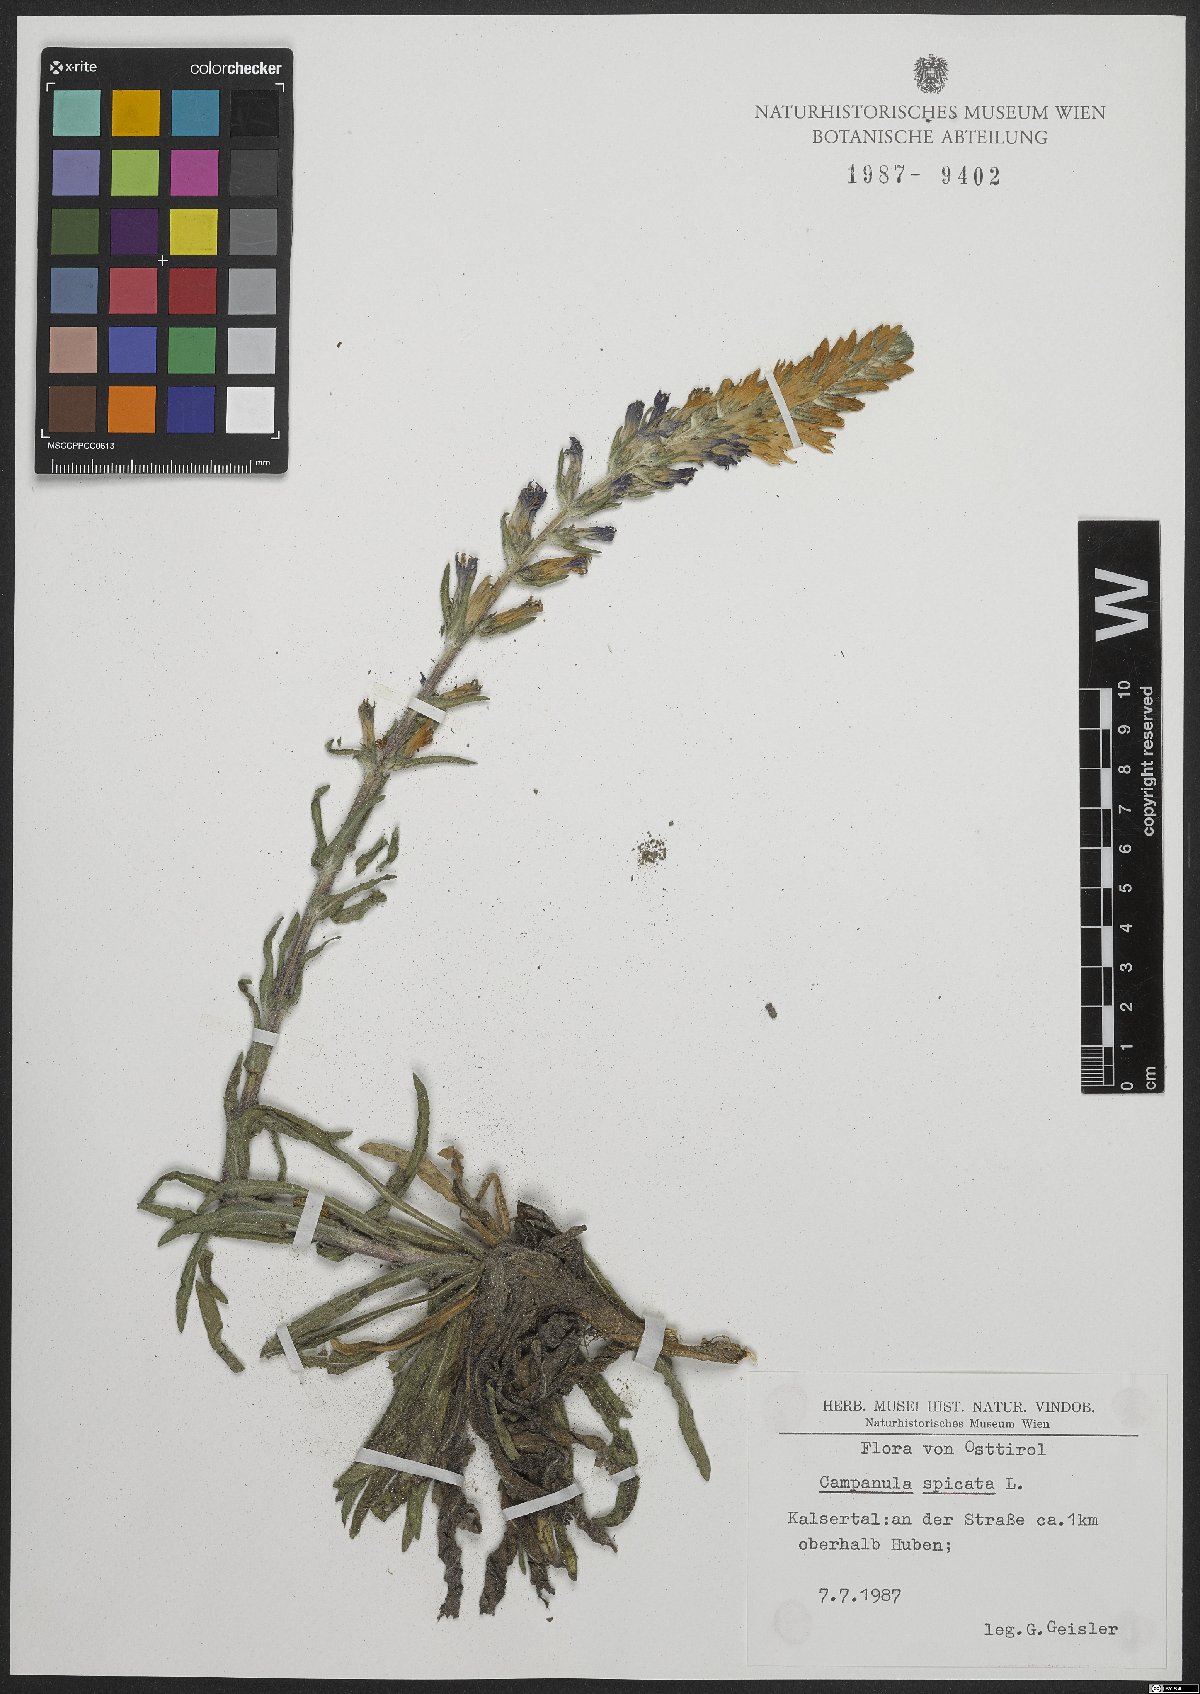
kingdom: Plantae
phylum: Tracheophyta
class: Magnoliopsida
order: Asterales
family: Campanulaceae
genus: Campanula
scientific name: Campanula spicata
